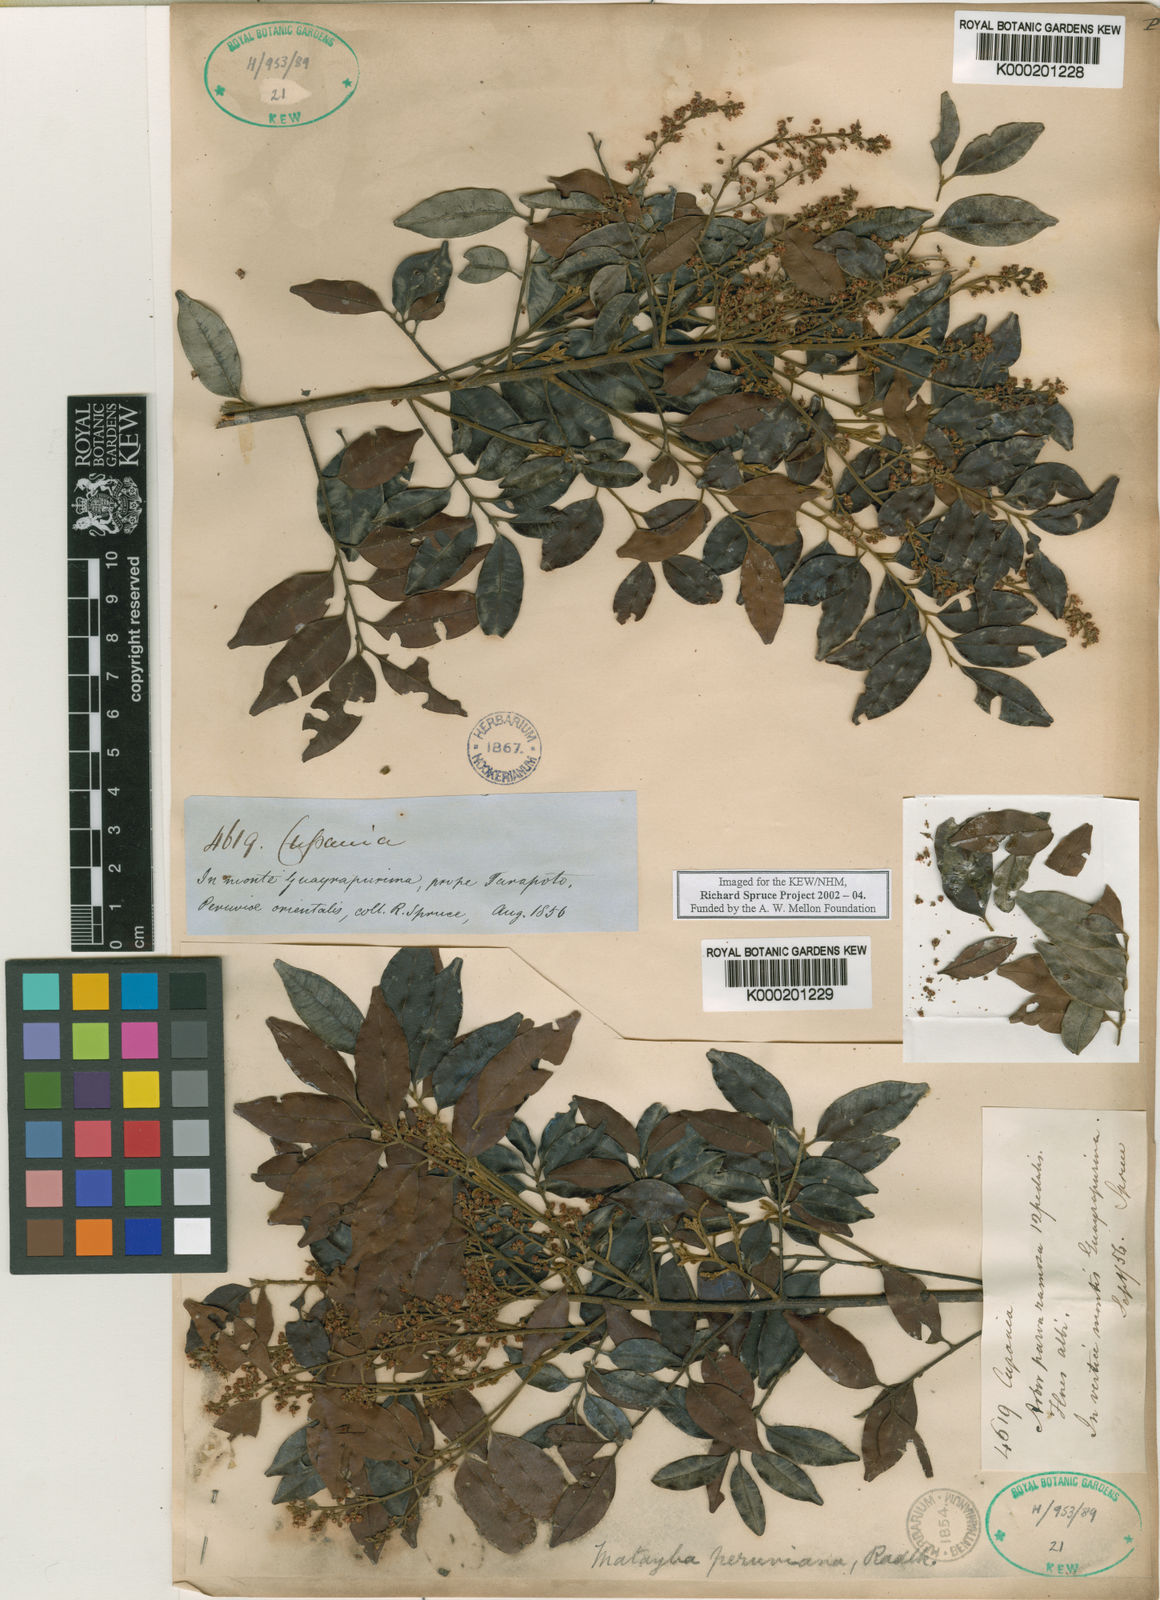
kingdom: Plantae
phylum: Tracheophyta
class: Magnoliopsida
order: Sapindales
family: Sapindaceae
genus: Matayba
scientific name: Matayba peruviana
